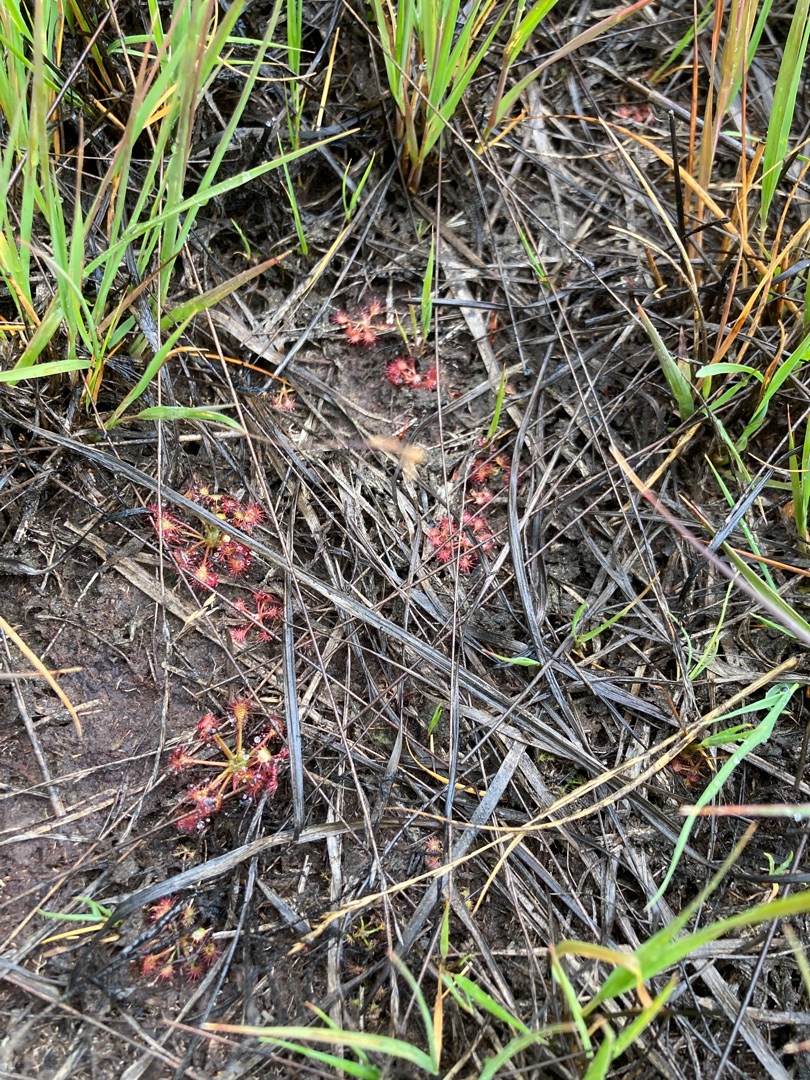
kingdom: Plantae
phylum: Tracheophyta
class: Magnoliopsida
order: Caryophyllales
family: Droseraceae
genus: Drosera
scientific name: Drosera rotundifolia
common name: Rundbladet soldug
